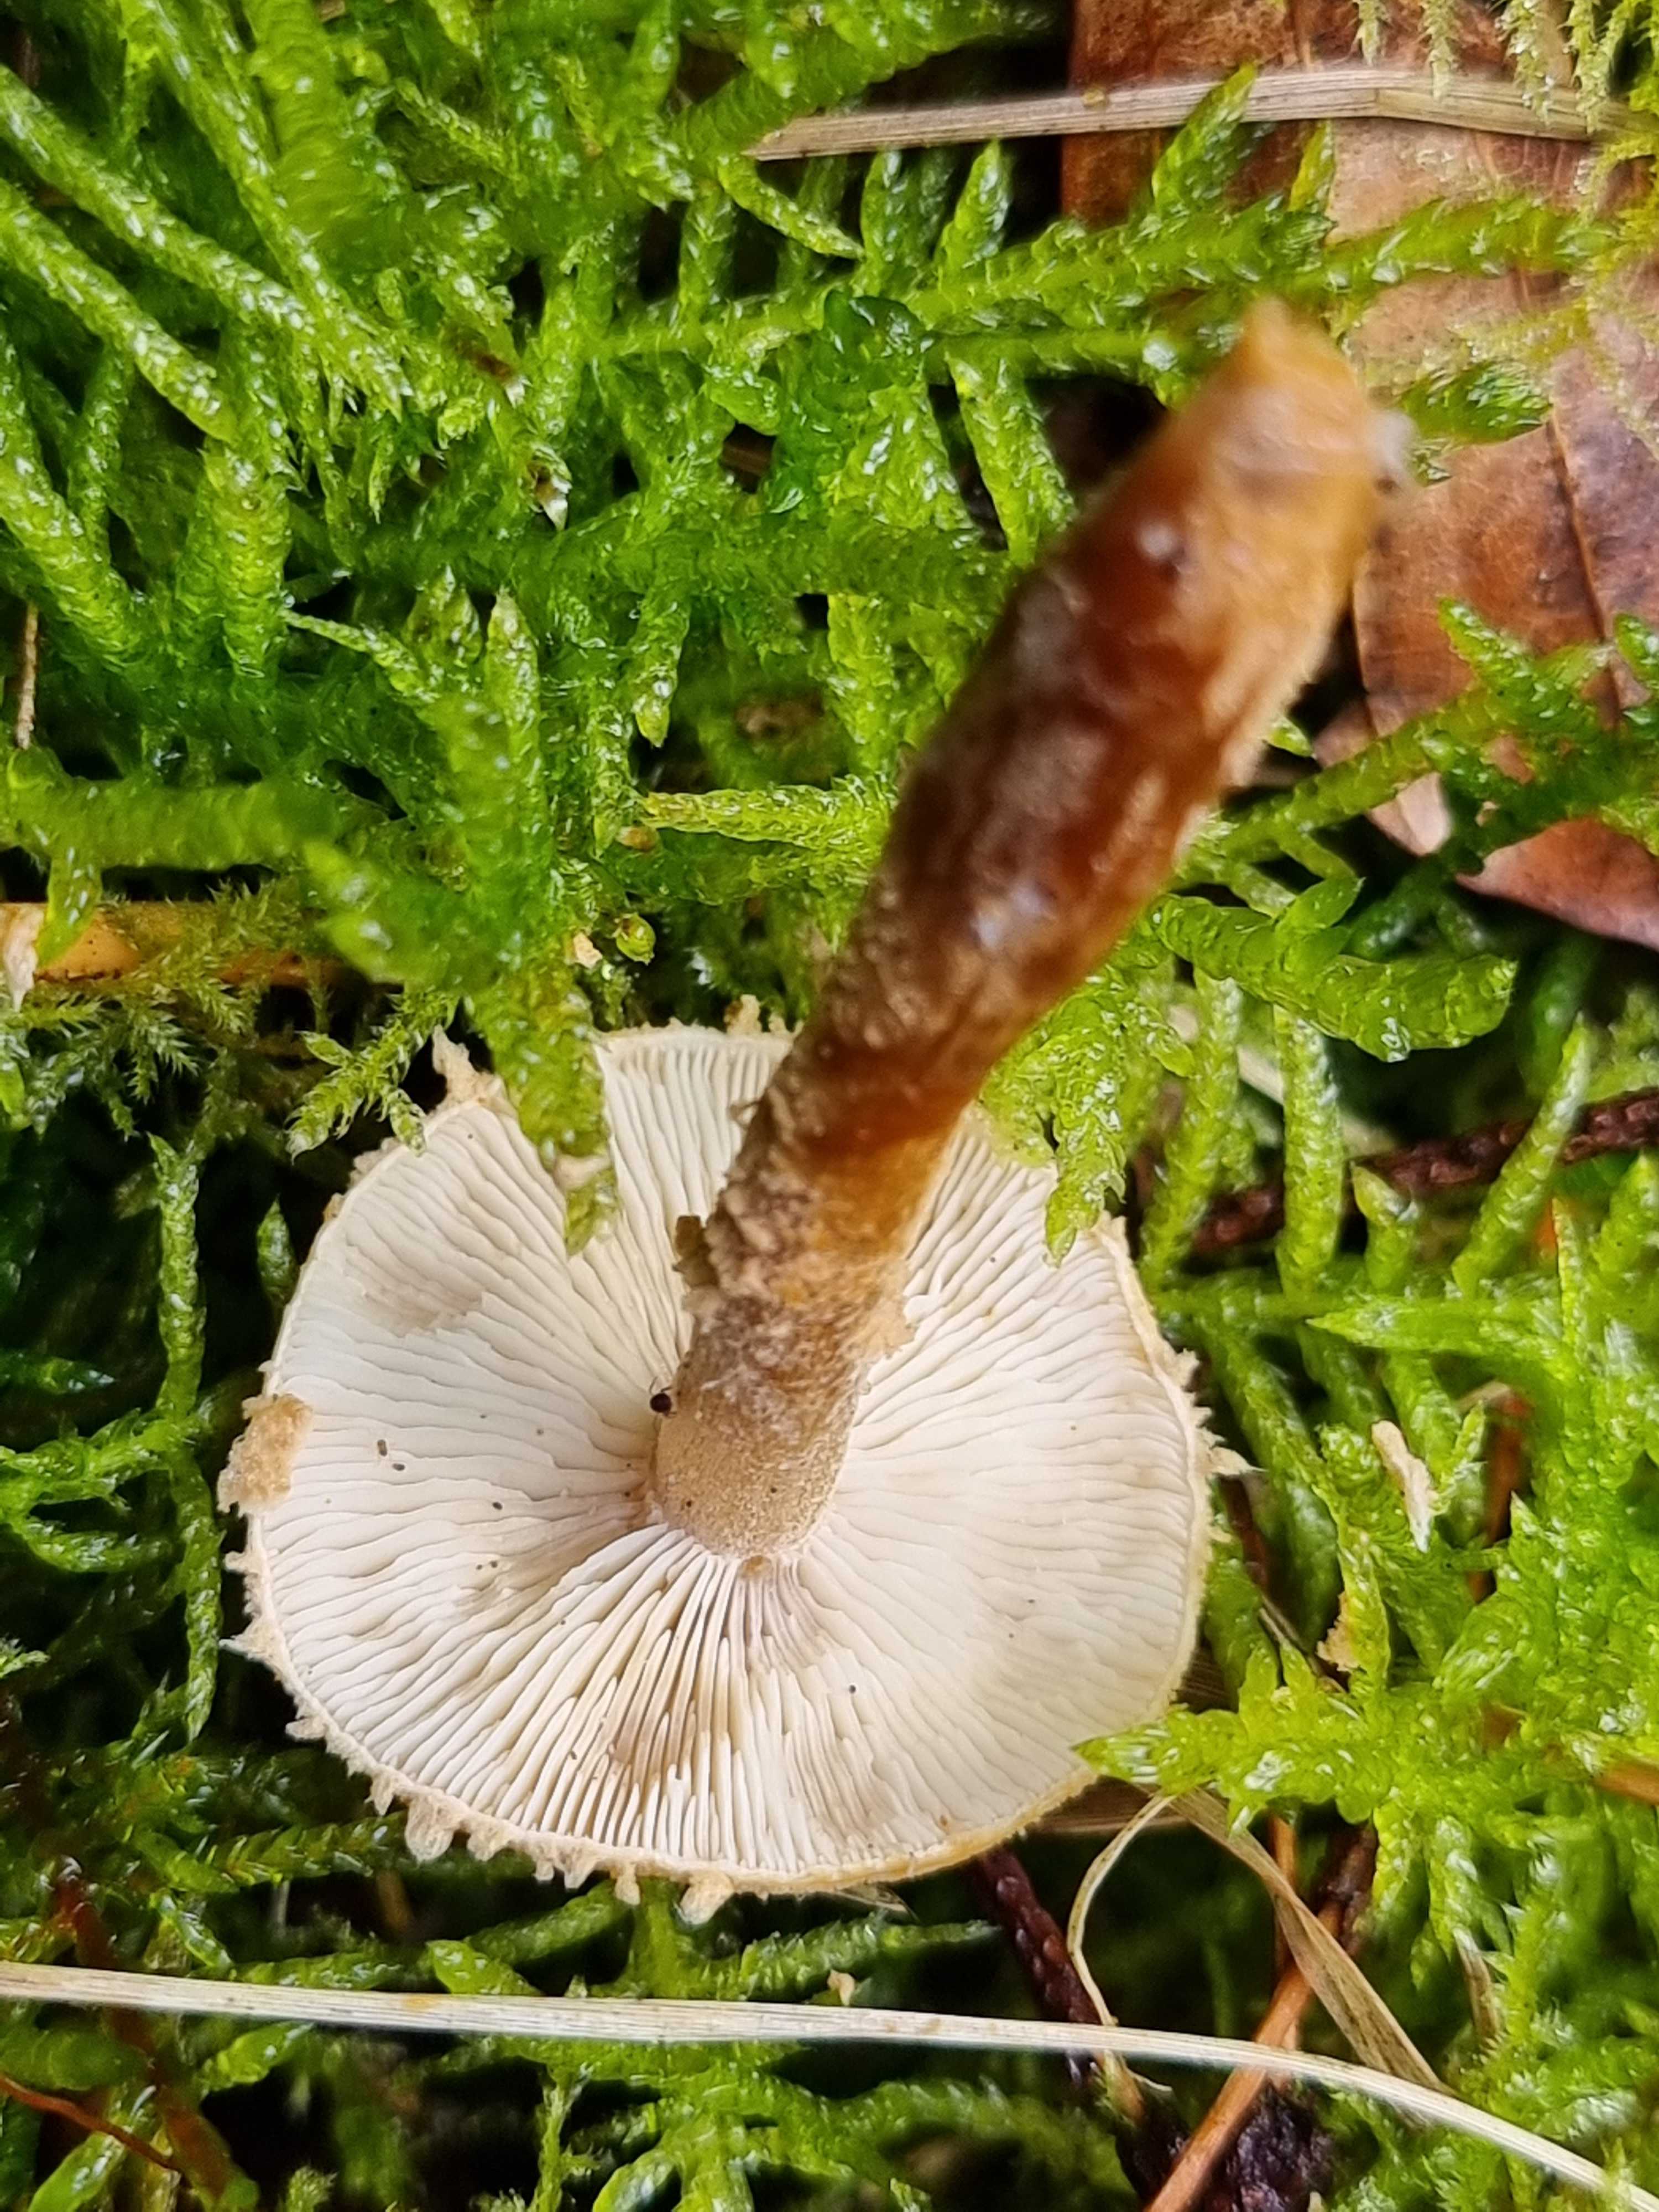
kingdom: Fungi
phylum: Basidiomycota
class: Agaricomycetes
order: Agaricales
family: Tricholomataceae
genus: Cystoderma
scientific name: Cystoderma amianthinum
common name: okkergul grynhat
